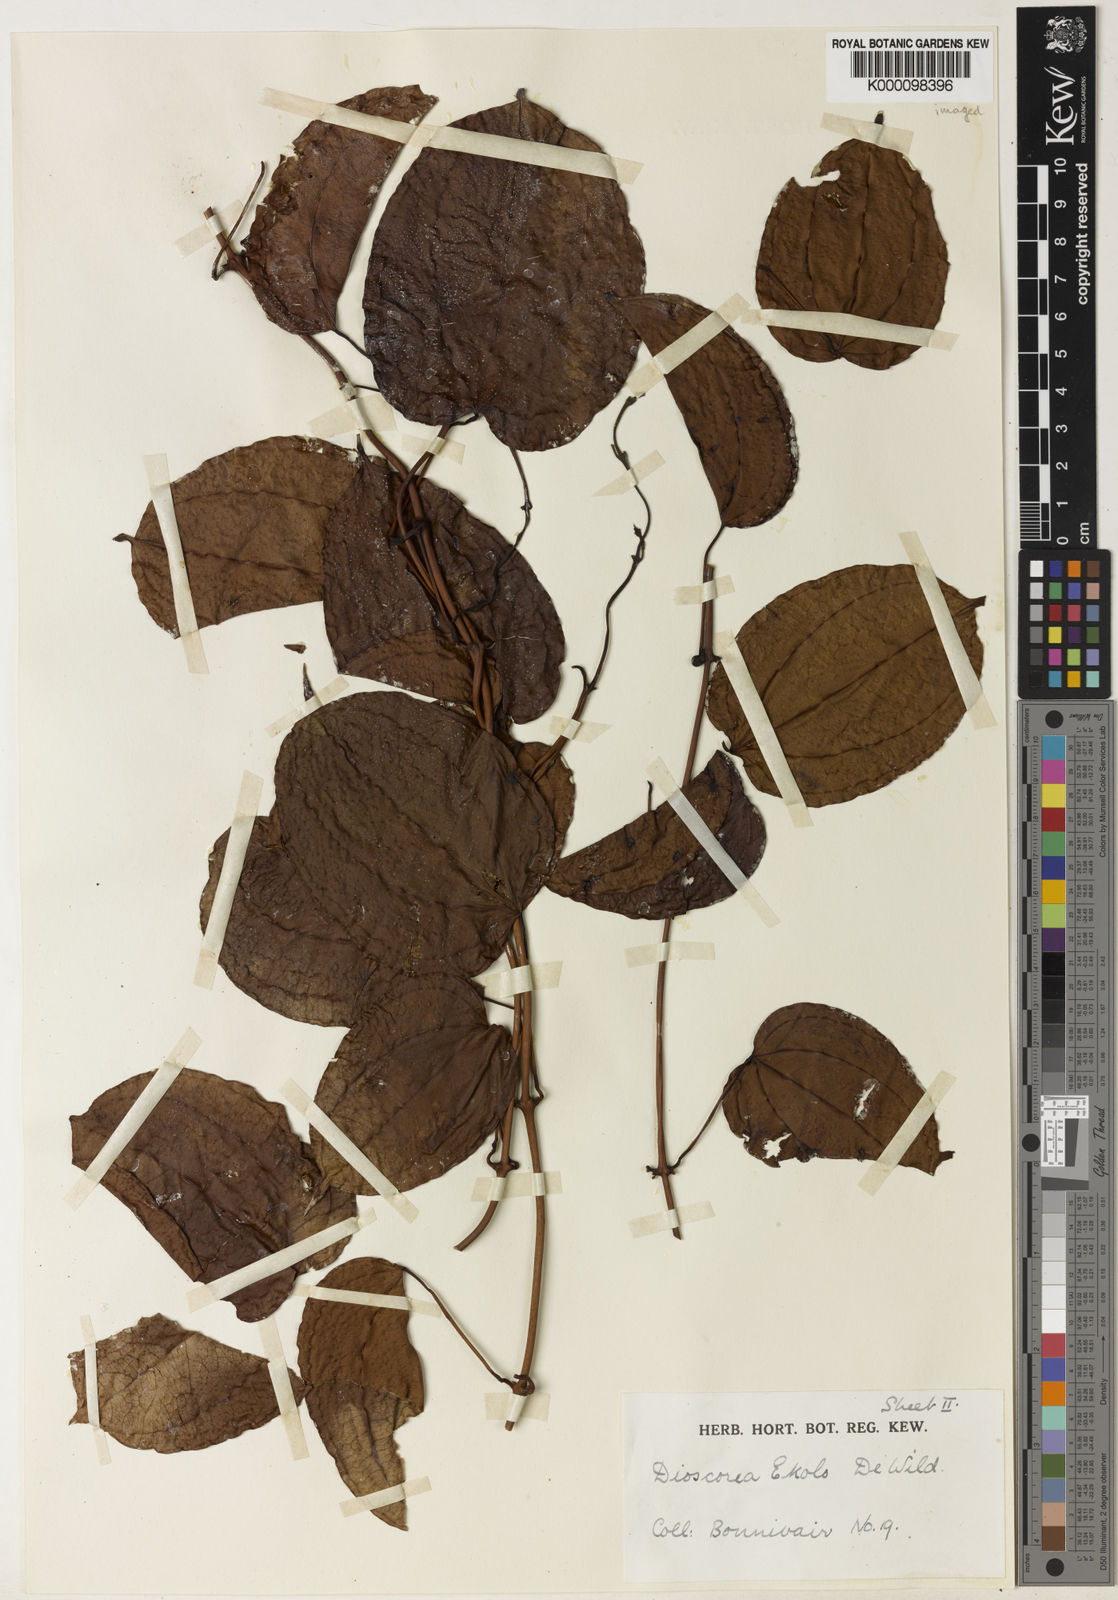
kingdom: Plantae
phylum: Tracheophyta
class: Liliopsida
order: Dioscoreales
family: Dioscoreaceae
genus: Dioscorea
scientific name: Dioscorea minutiflora
